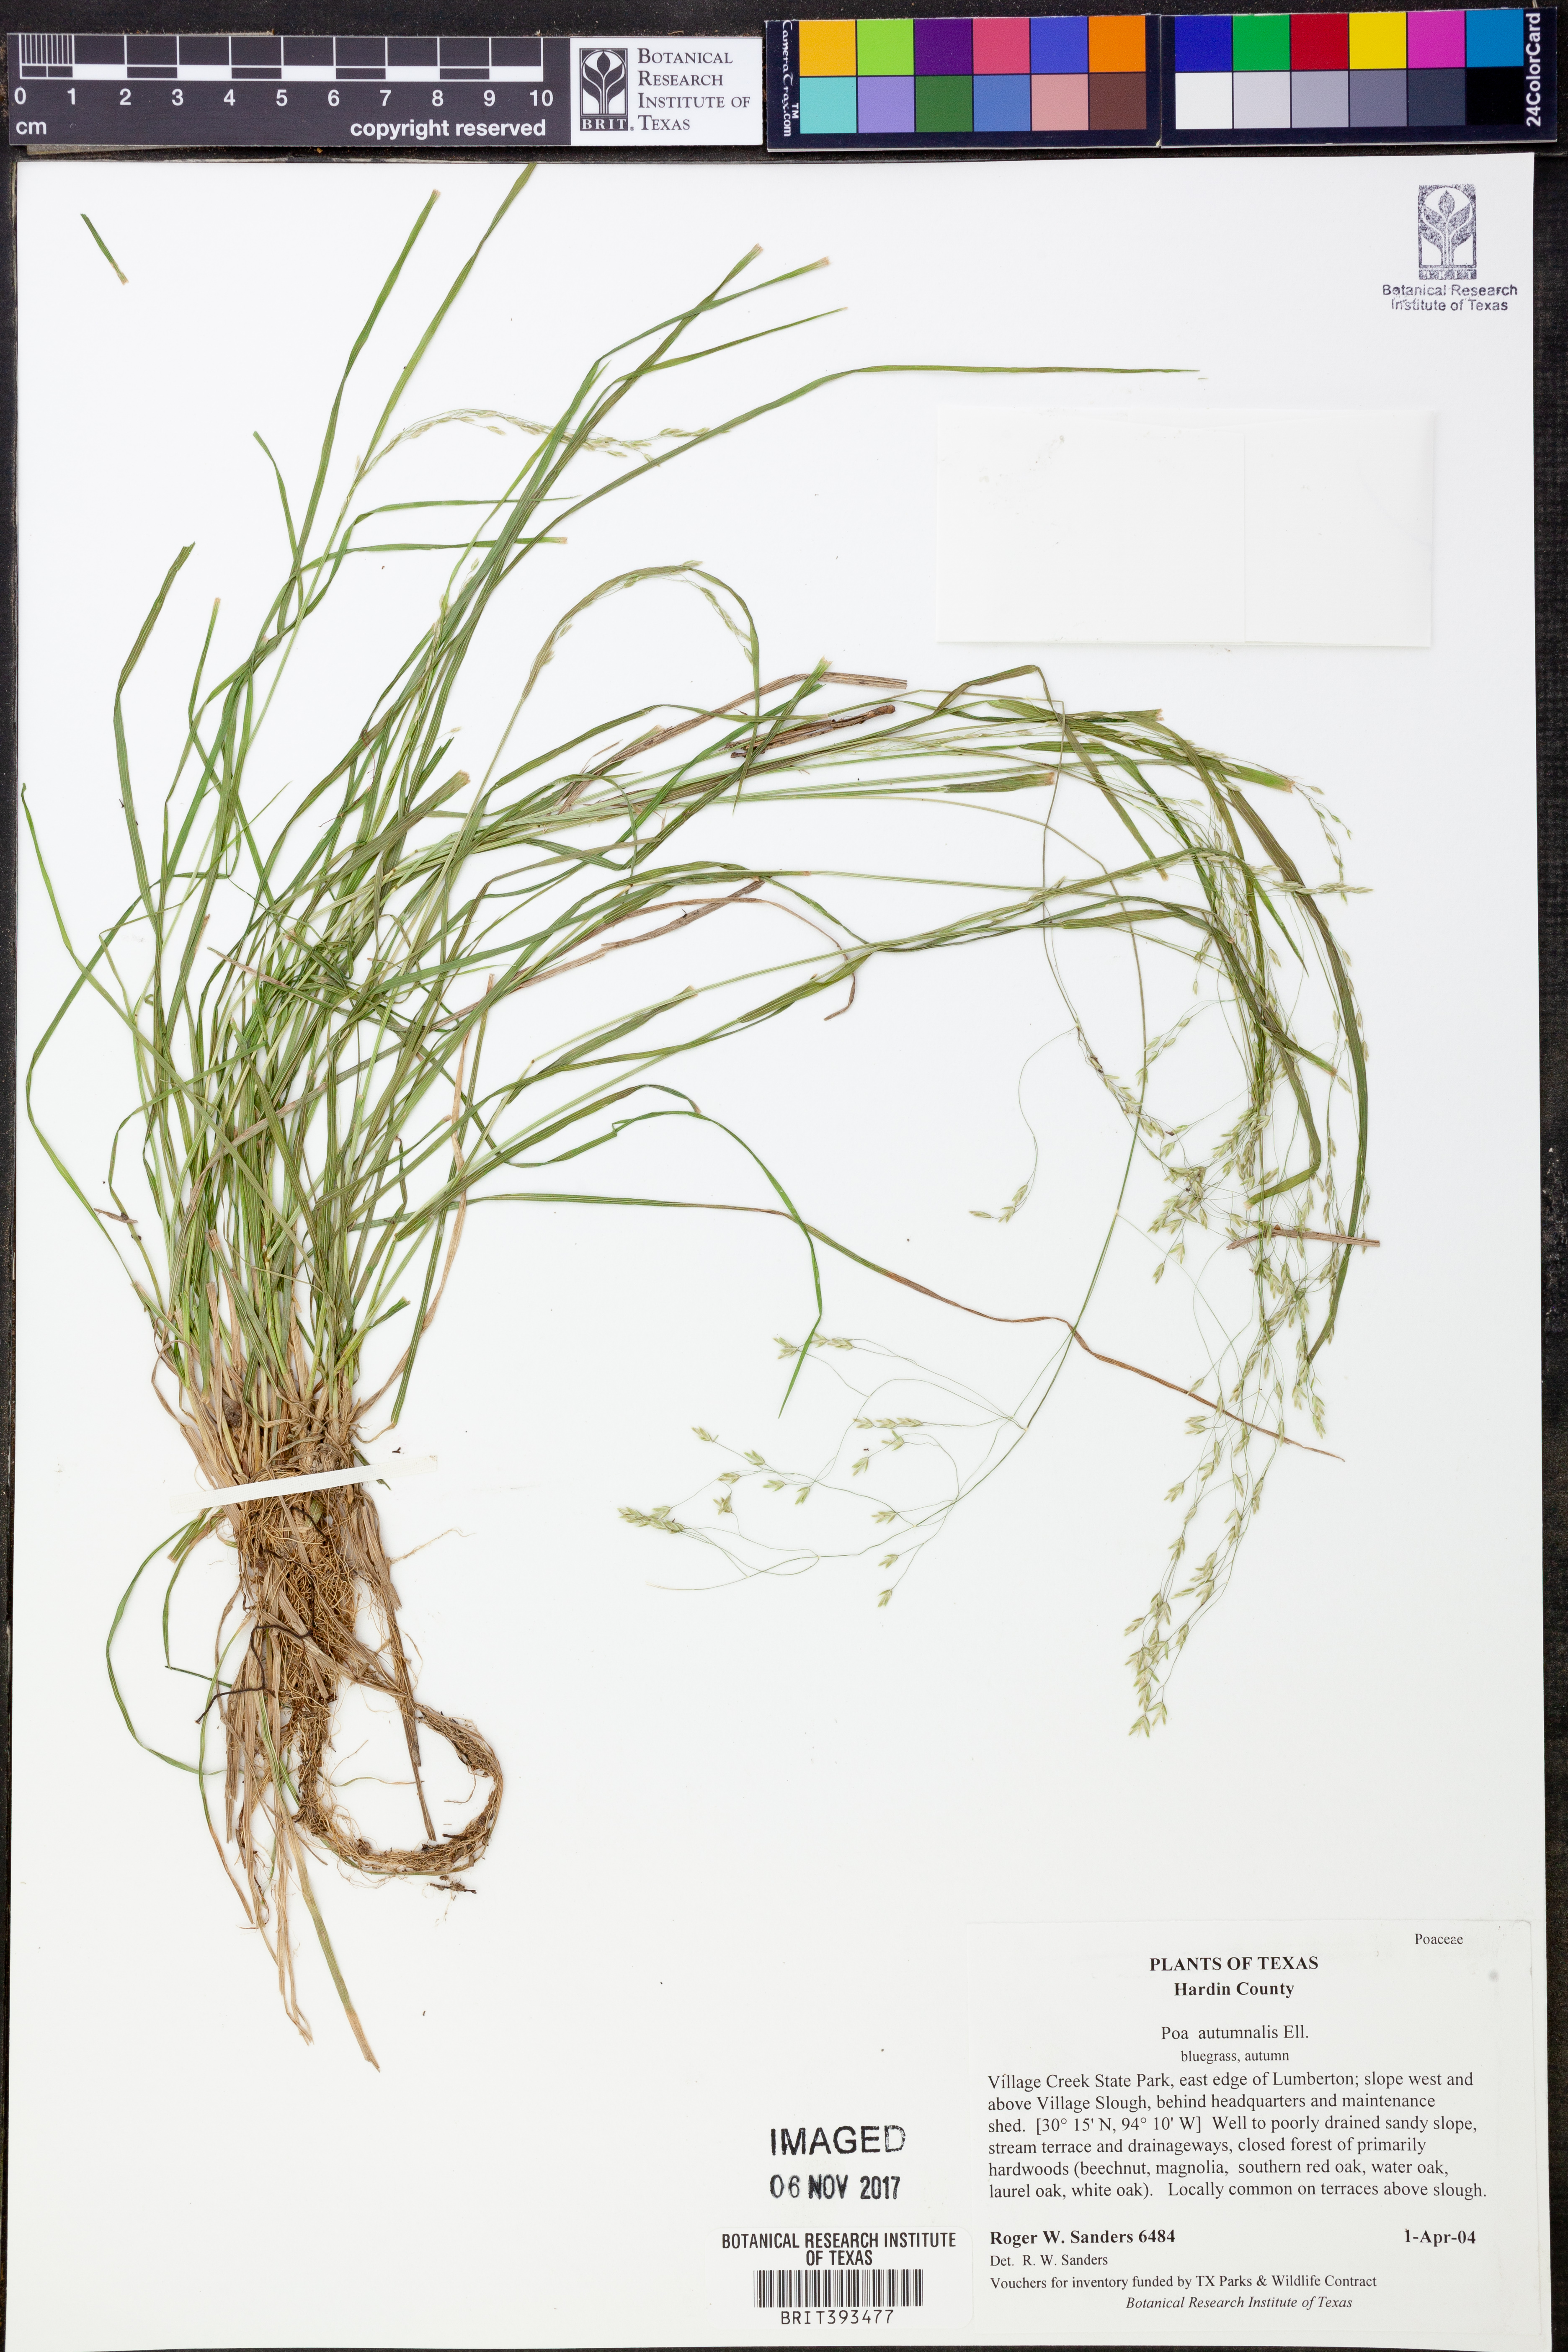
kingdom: Plantae
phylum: Tracheophyta
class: Liliopsida
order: Poales
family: Poaceae
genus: Poa
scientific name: Poa autumnalis
